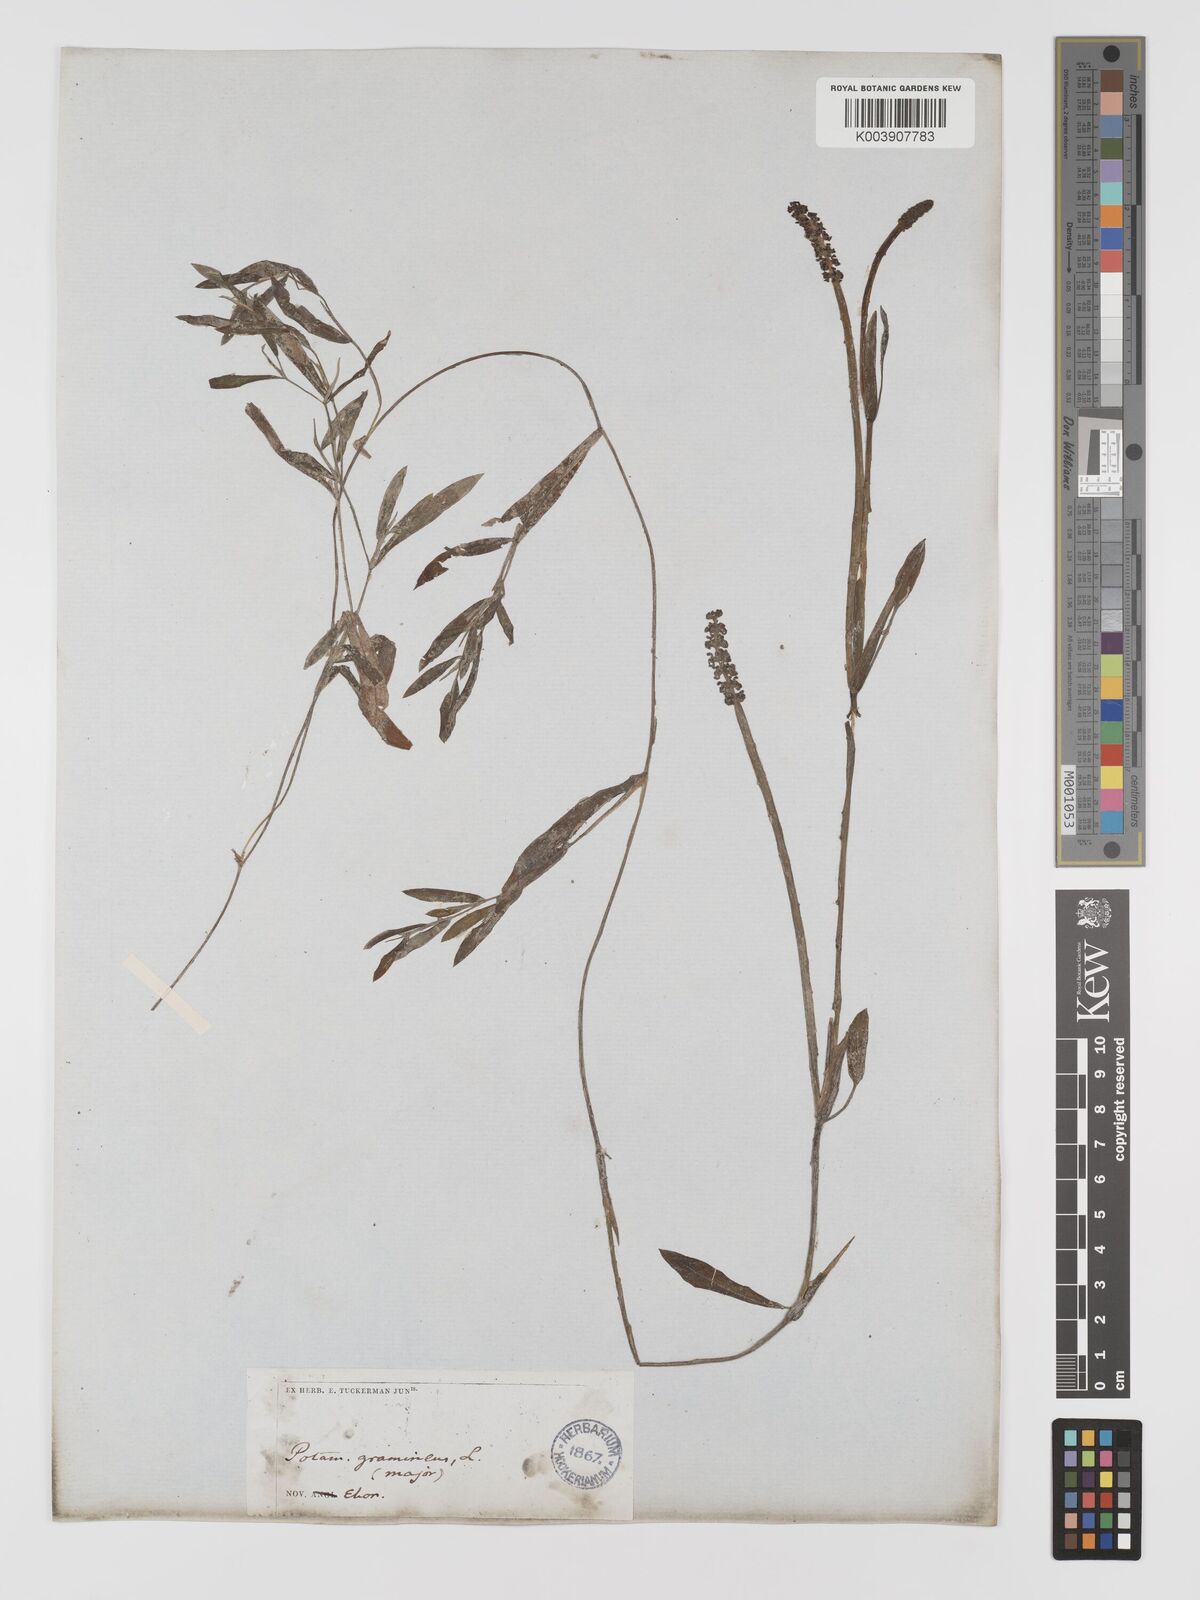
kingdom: Plantae
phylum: Tracheophyta
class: Liliopsida
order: Alismatales
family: Potamogetonaceae
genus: Potamogeton
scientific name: Potamogeton gramineus
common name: Various-leaved pondweed
